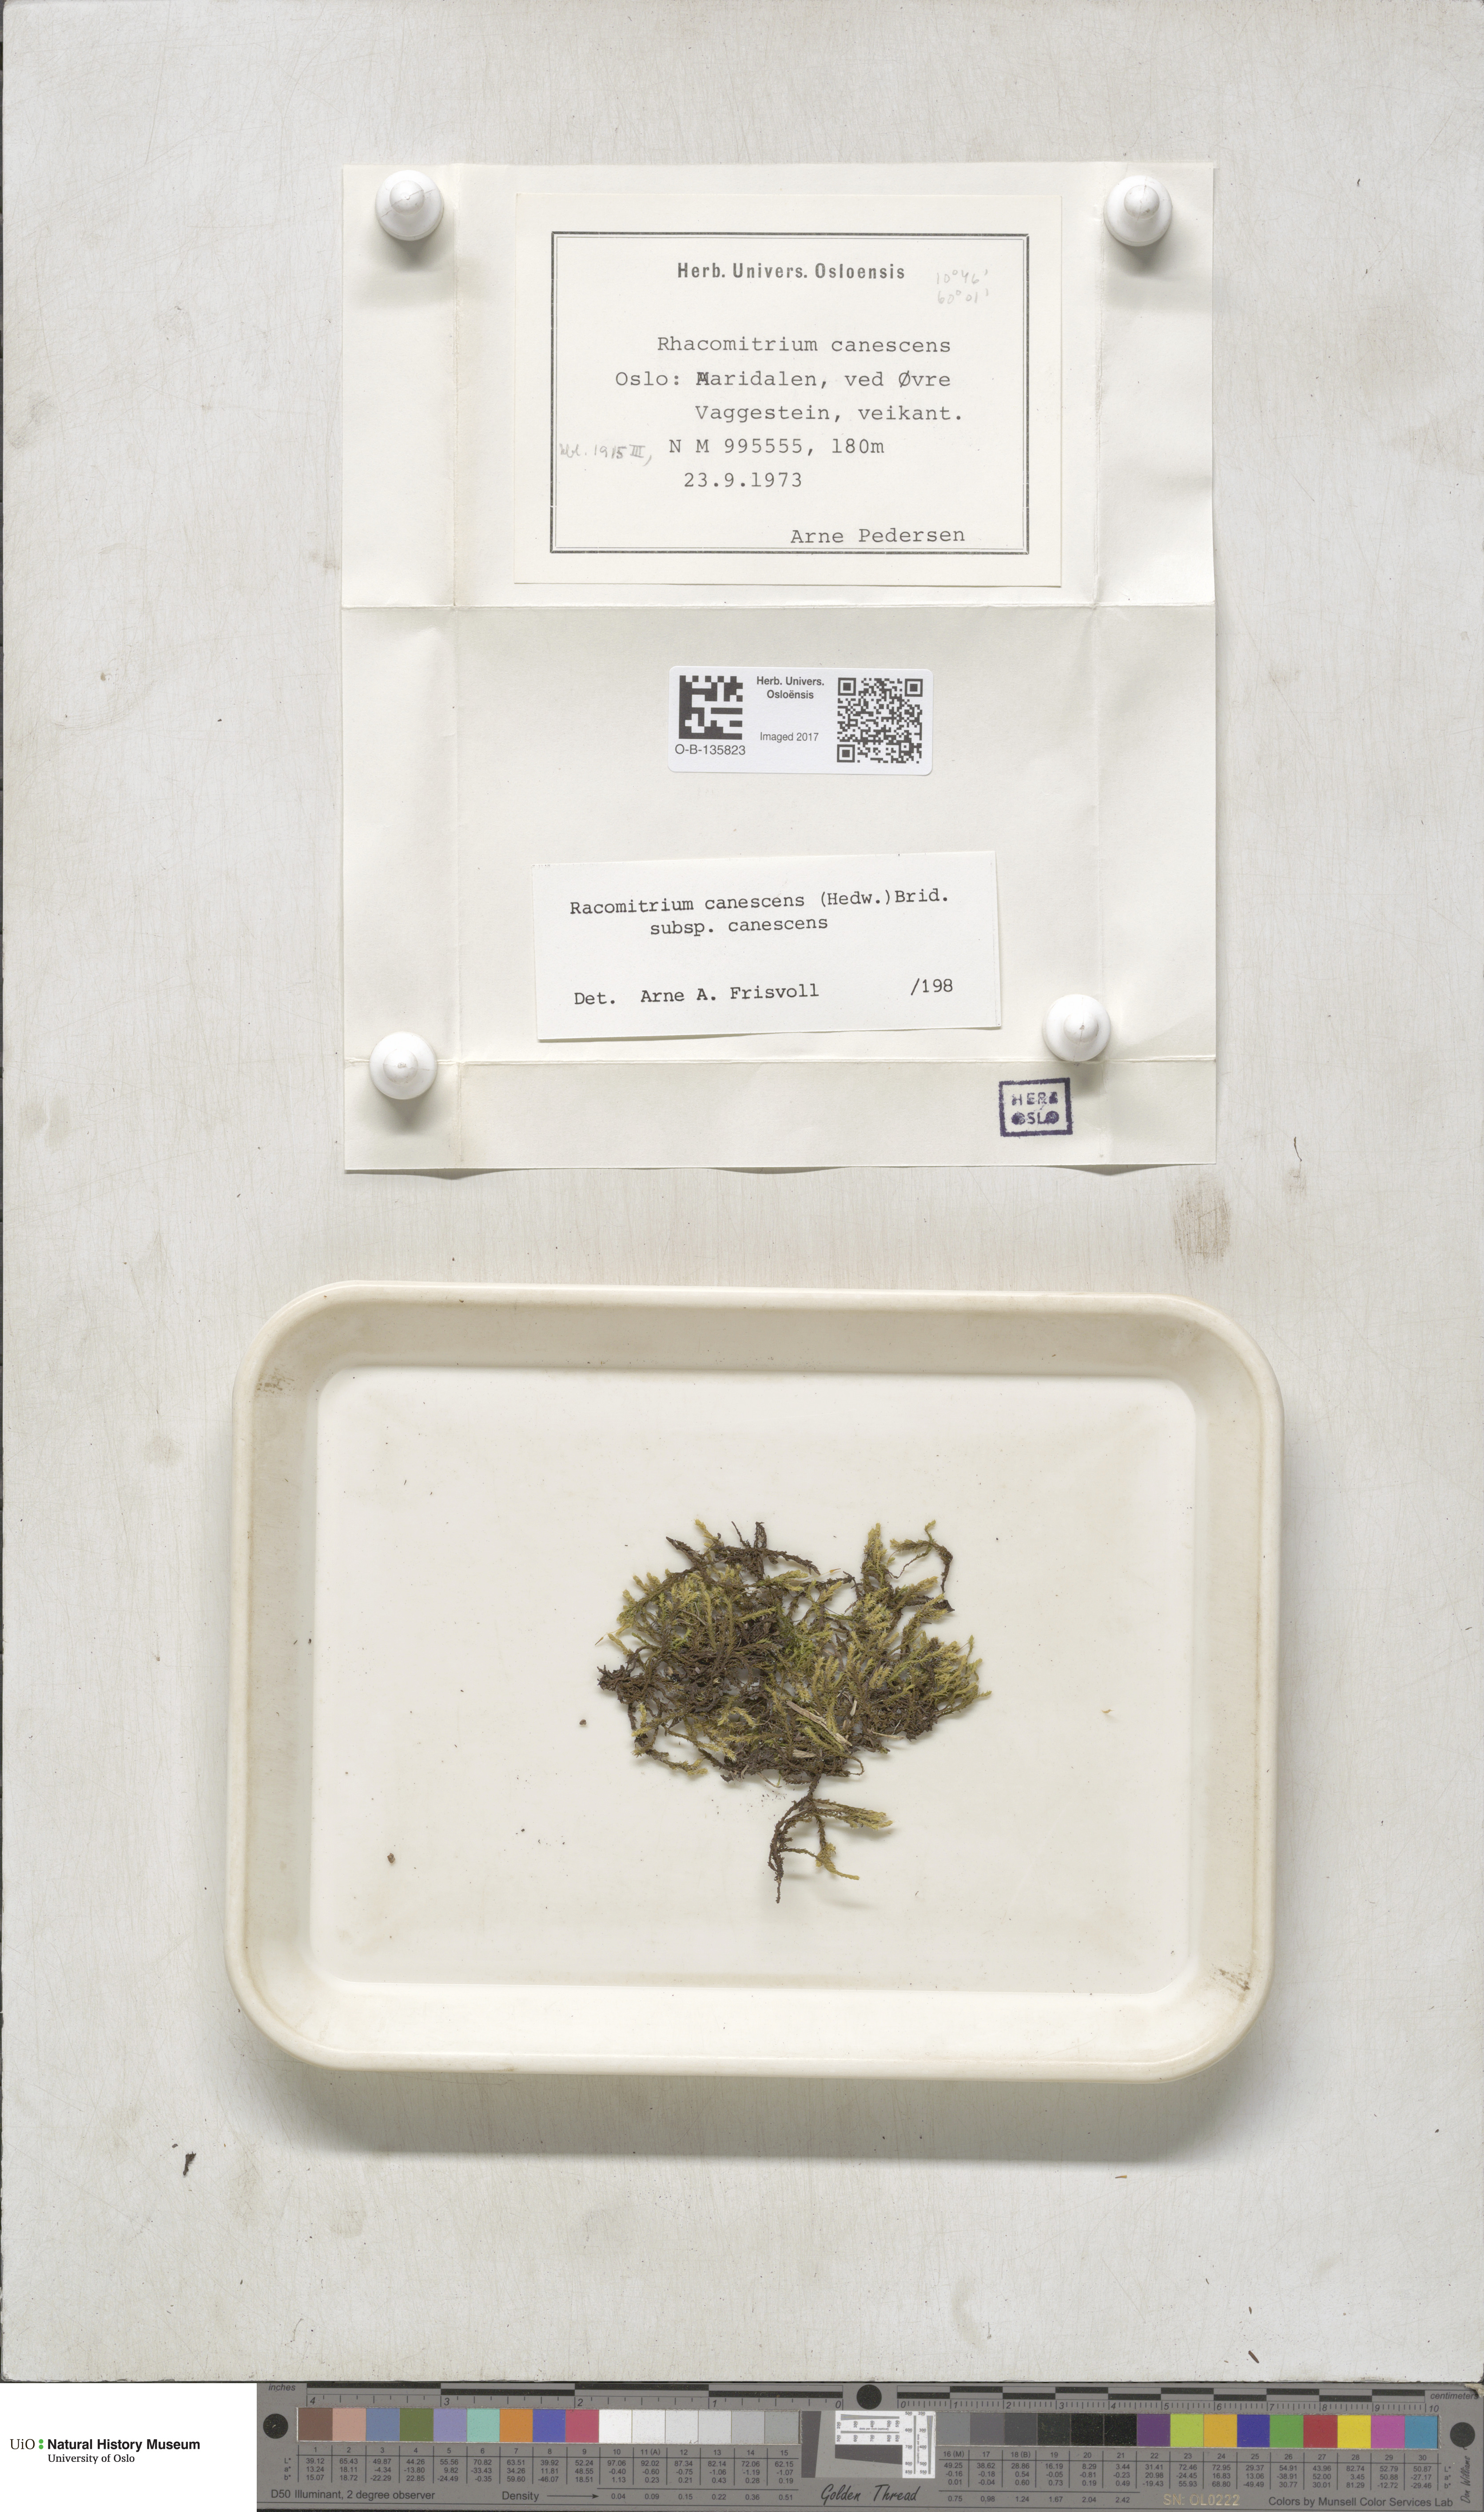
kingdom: Plantae
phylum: Bryophyta
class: Bryopsida
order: Grimmiales
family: Grimmiaceae
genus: Niphotrichum
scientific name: Niphotrichum canescens
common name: Hoary fringe-moss
